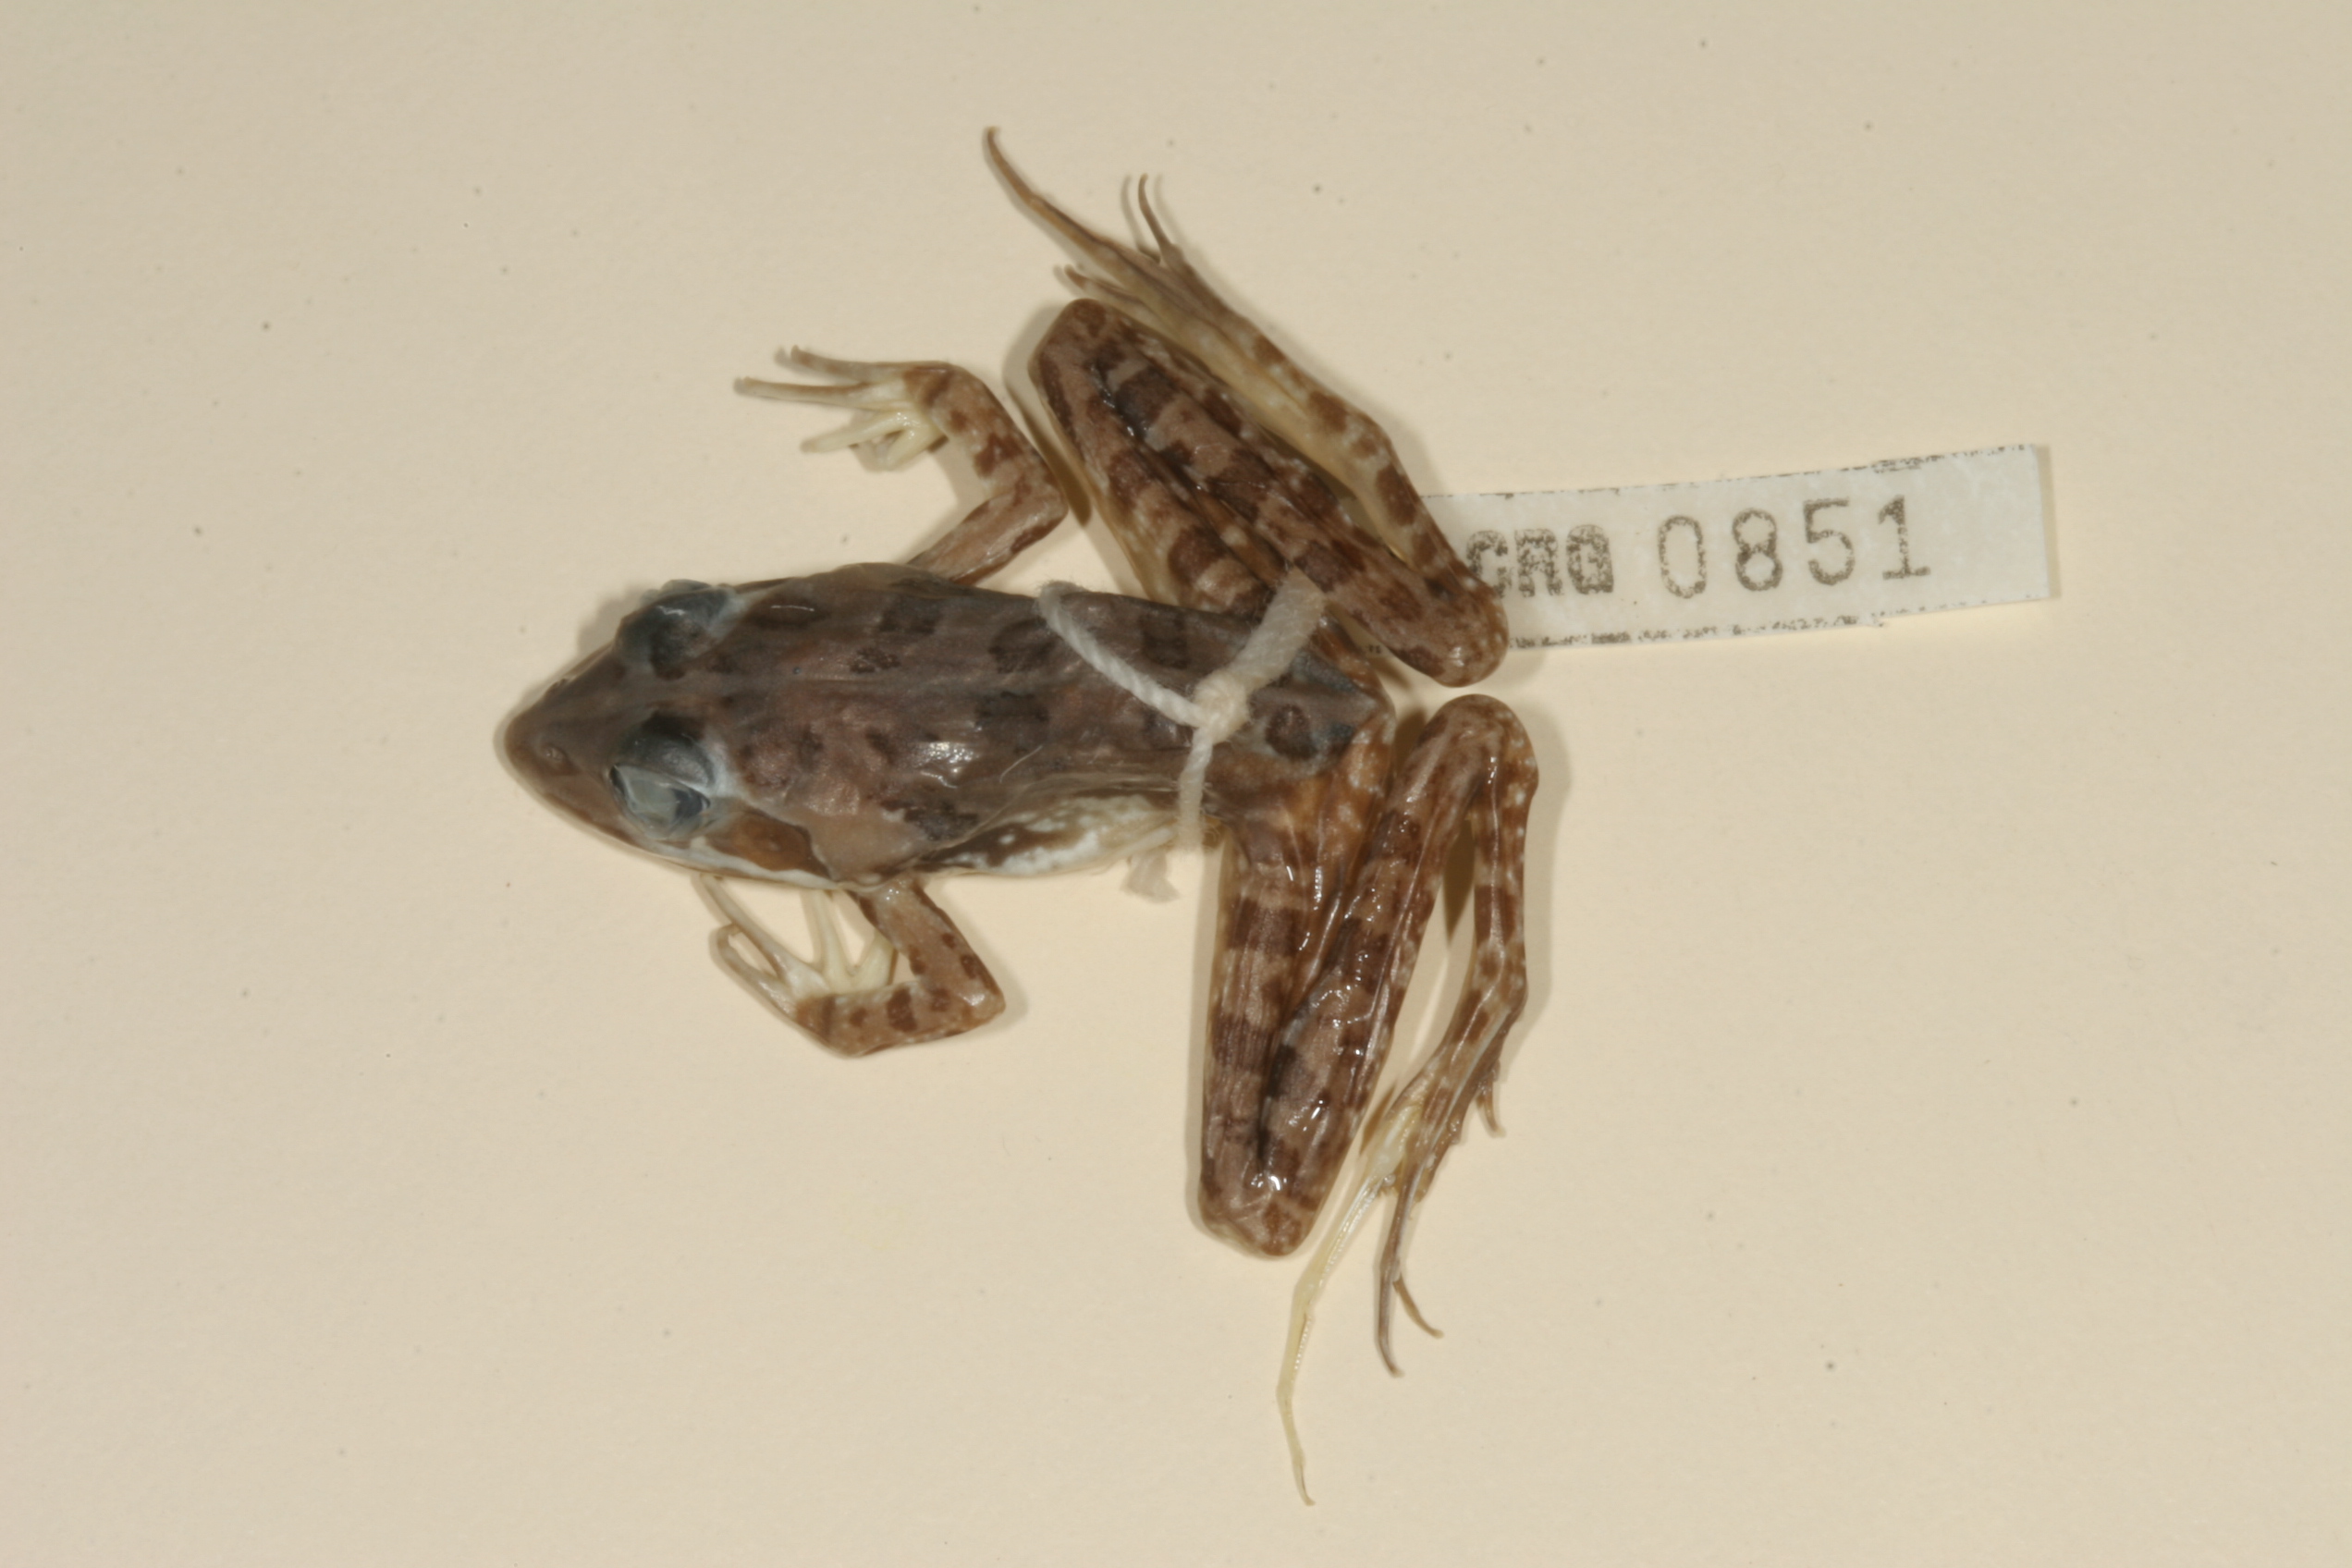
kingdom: Animalia
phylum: Chordata
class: Amphibia
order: Anura
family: Pyxicephalidae
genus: Amietia
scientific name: Amietia angolensis
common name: Dusky-throated frog
